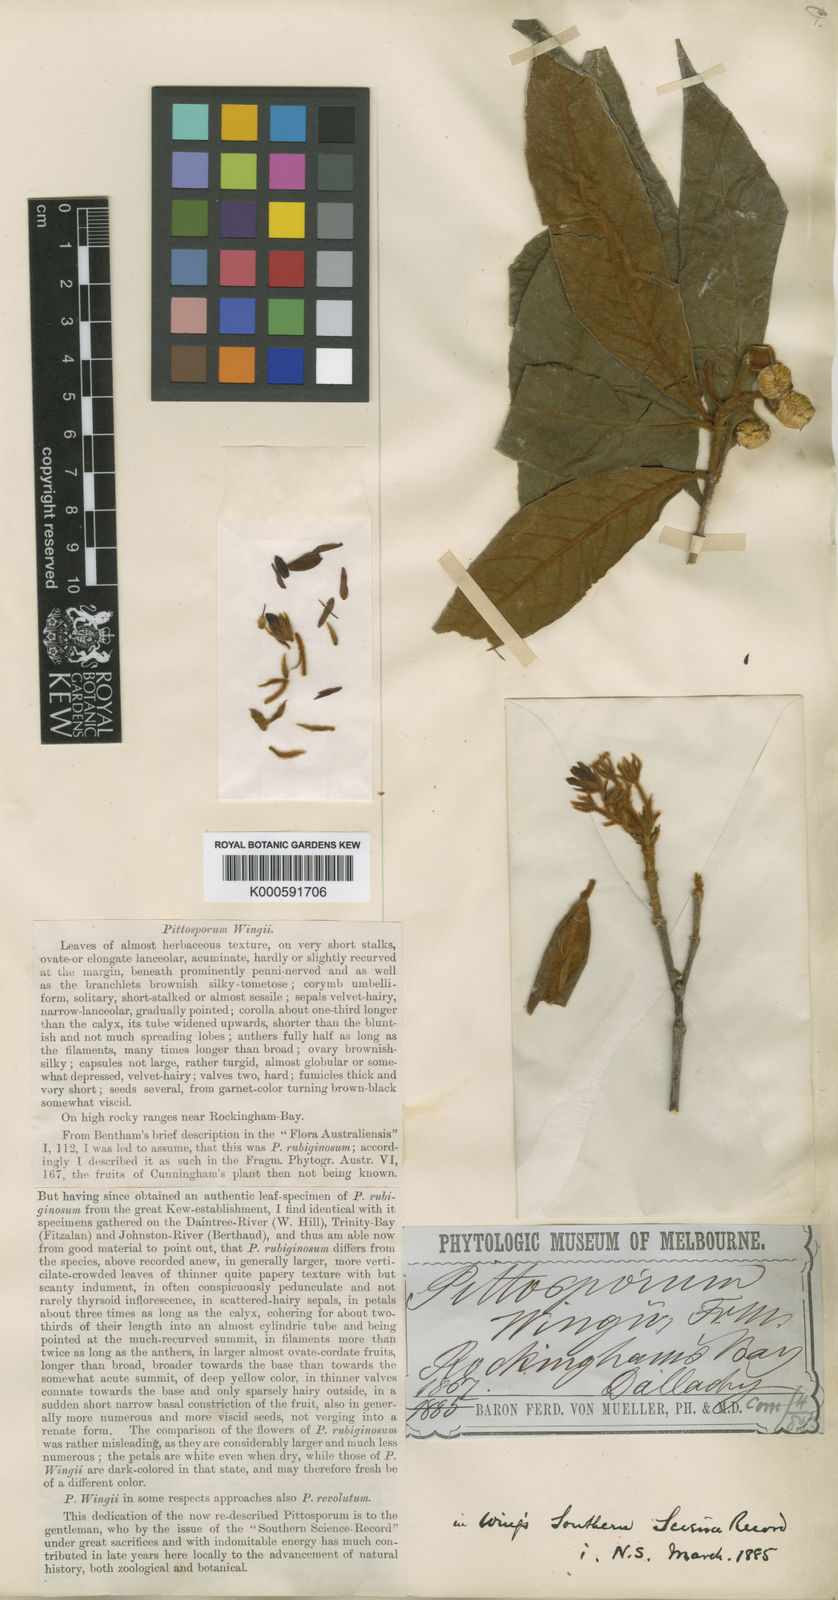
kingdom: Plantae
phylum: Tracheophyta
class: Magnoliopsida
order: Apiales
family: Pittosporaceae
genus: Pittosporum
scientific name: Pittosporum wingii
